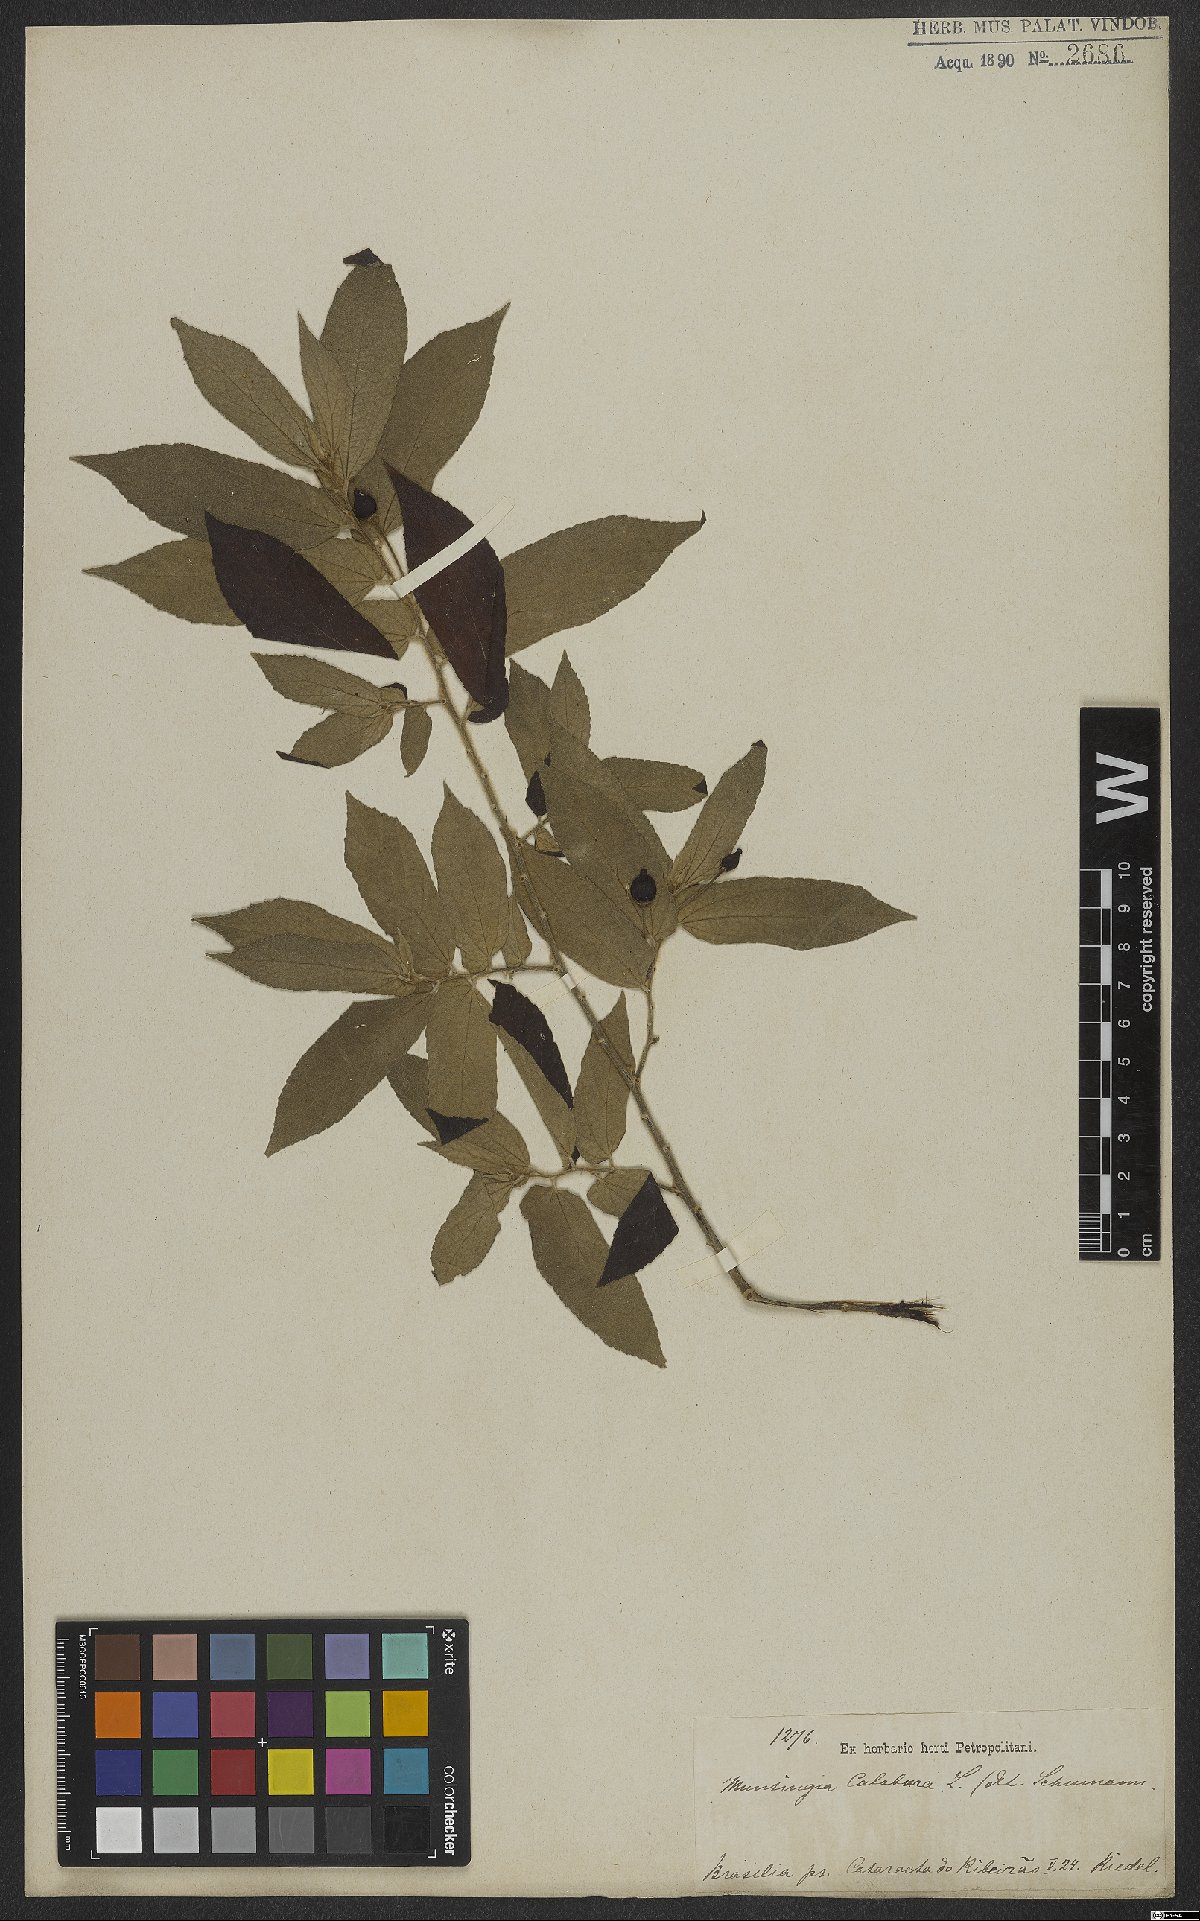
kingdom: Plantae
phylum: Tracheophyta
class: Magnoliopsida
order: Malvales
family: Muntingiaceae
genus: Muntingia
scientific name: Muntingia calabura
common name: Strawberrytree
